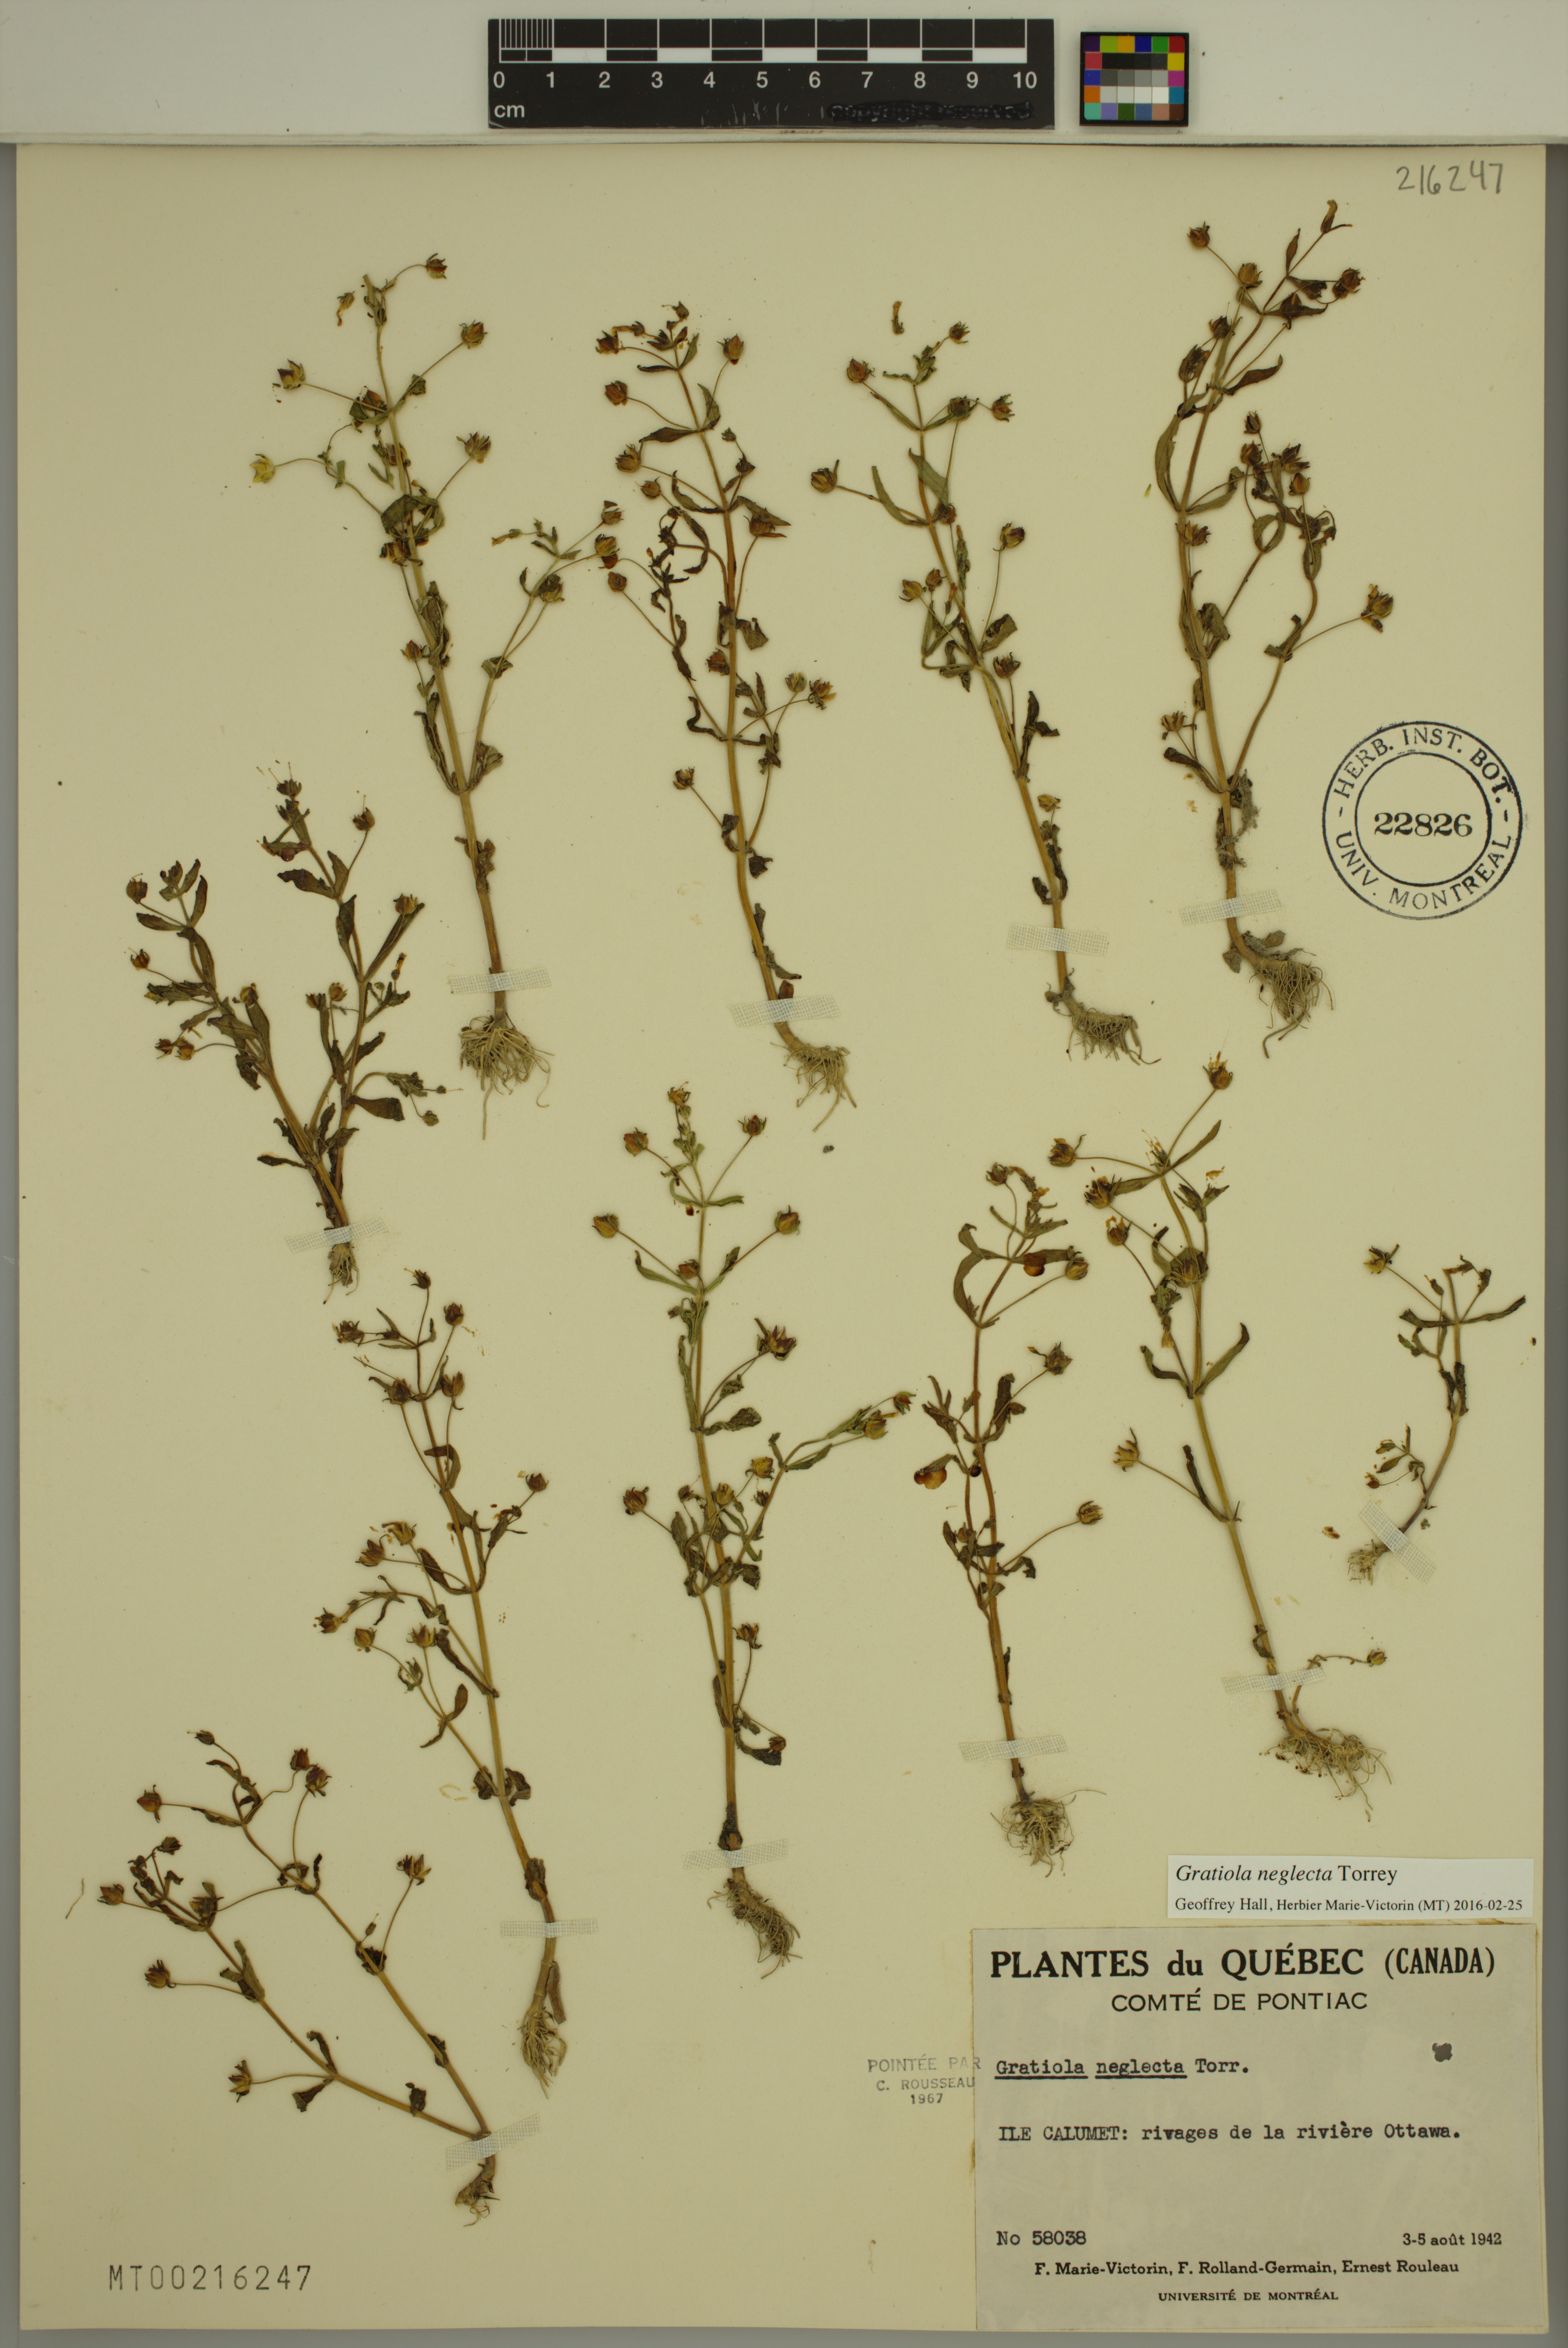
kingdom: Plantae
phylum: Tracheophyta
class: Magnoliopsida
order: Lamiales
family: Plantaginaceae
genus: Gratiola
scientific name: Gratiola neglecta
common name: American hedge-hyssop
